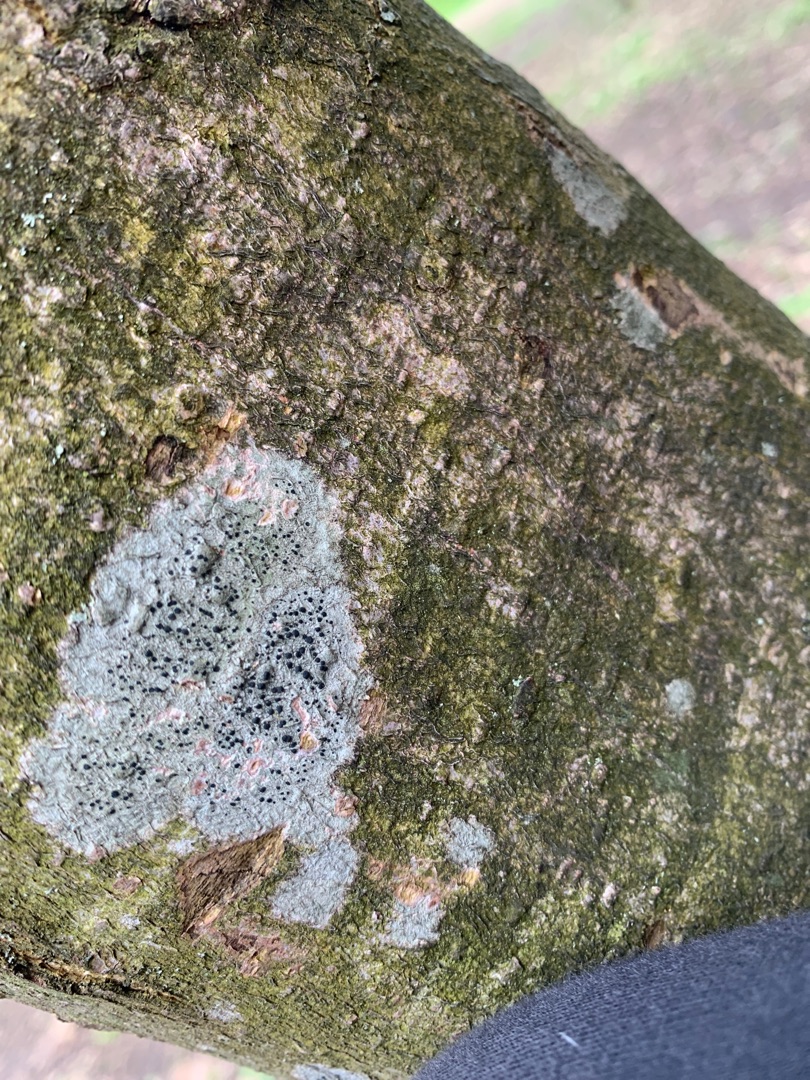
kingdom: Fungi
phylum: Ascomycota
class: Lecanoromycetes
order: Lecanorales
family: Lecanoraceae
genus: Lecidella
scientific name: Lecidella elaeochroma
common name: Grågrøn skivelav
